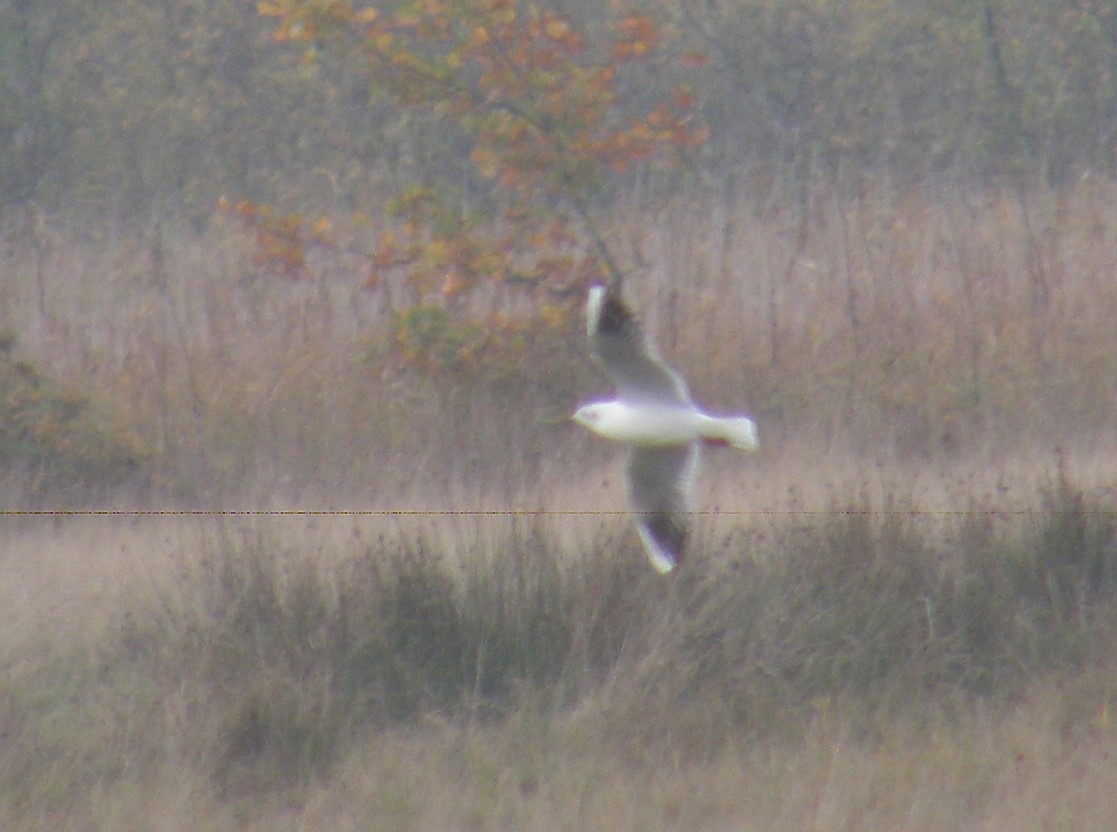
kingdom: Animalia
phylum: Chordata
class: Aves
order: Charadriiformes
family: Laridae
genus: Chroicocephalus
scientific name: Chroicocephalus ridibundus
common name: Hættemåge
